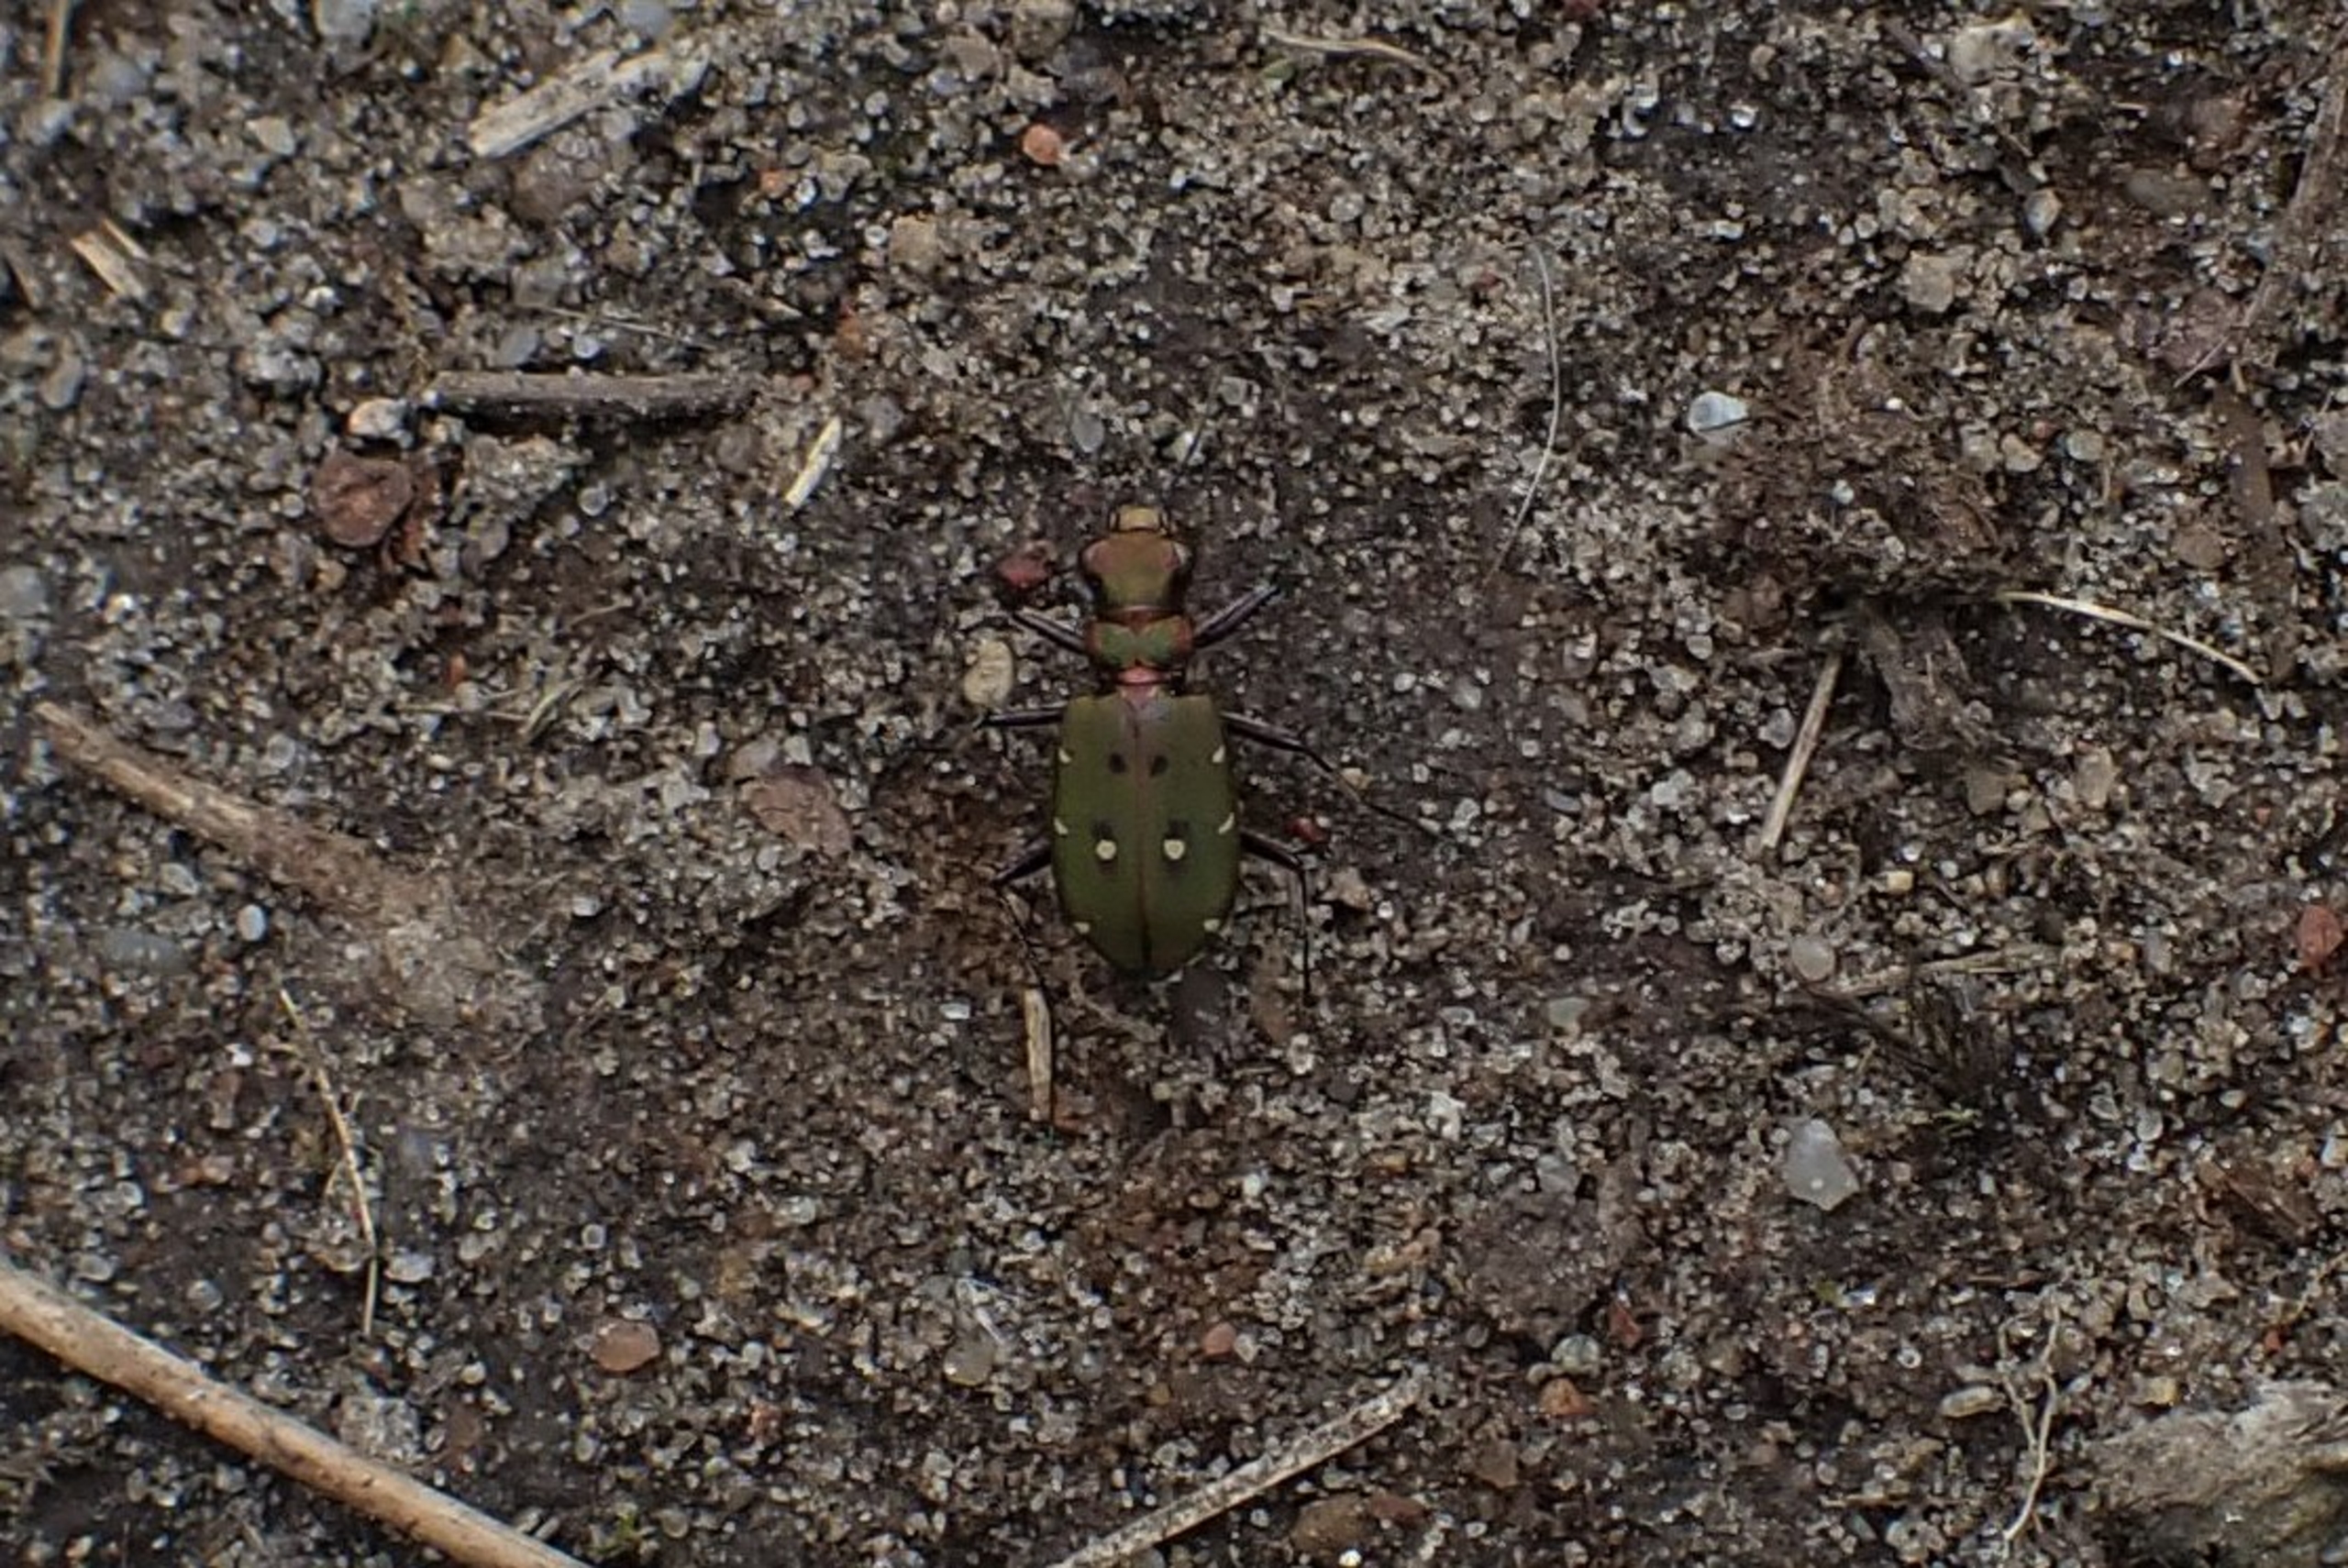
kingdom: Animalia
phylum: Arthropoda
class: Insecta
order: Coleoptera
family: Carabidae
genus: Cicindela
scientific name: Cicindela campestris
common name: Grøn sandspringer
